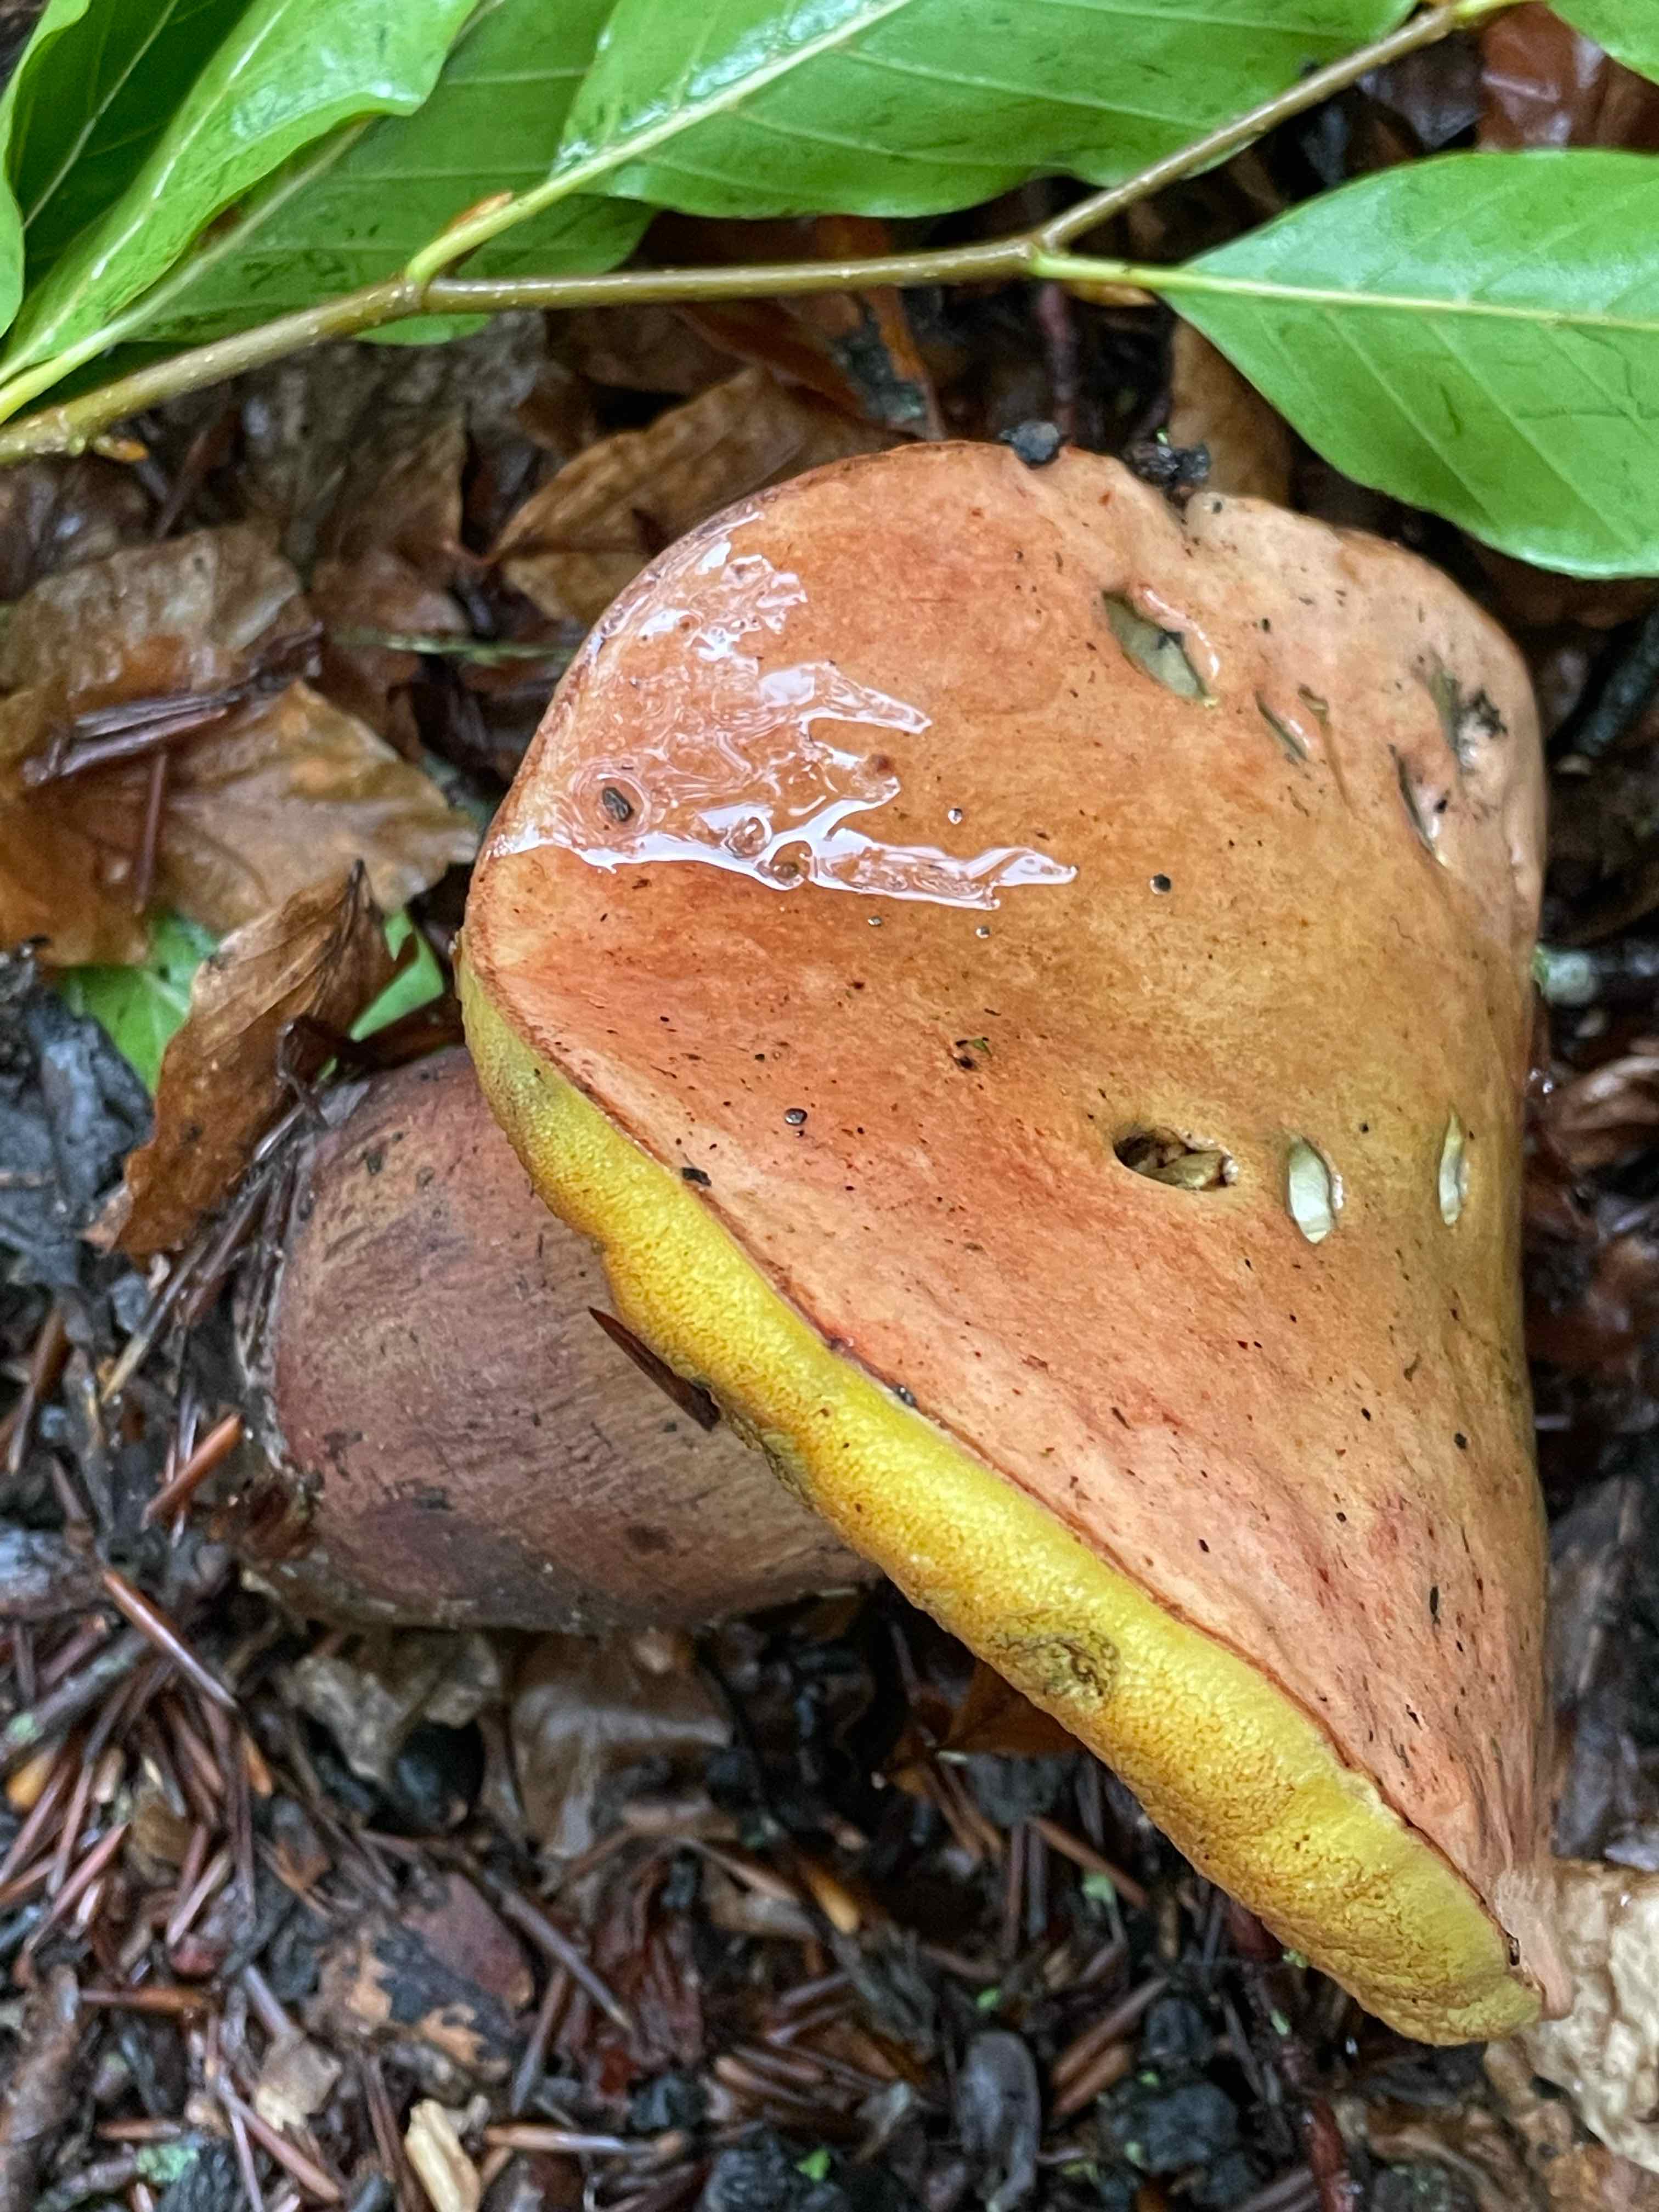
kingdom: Fungi
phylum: Basidiomycota
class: Agaricomycetes
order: Boletales
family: Boletaceae
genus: Suillellus
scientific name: Suillellus luridus
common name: netstokket indigorørhat
